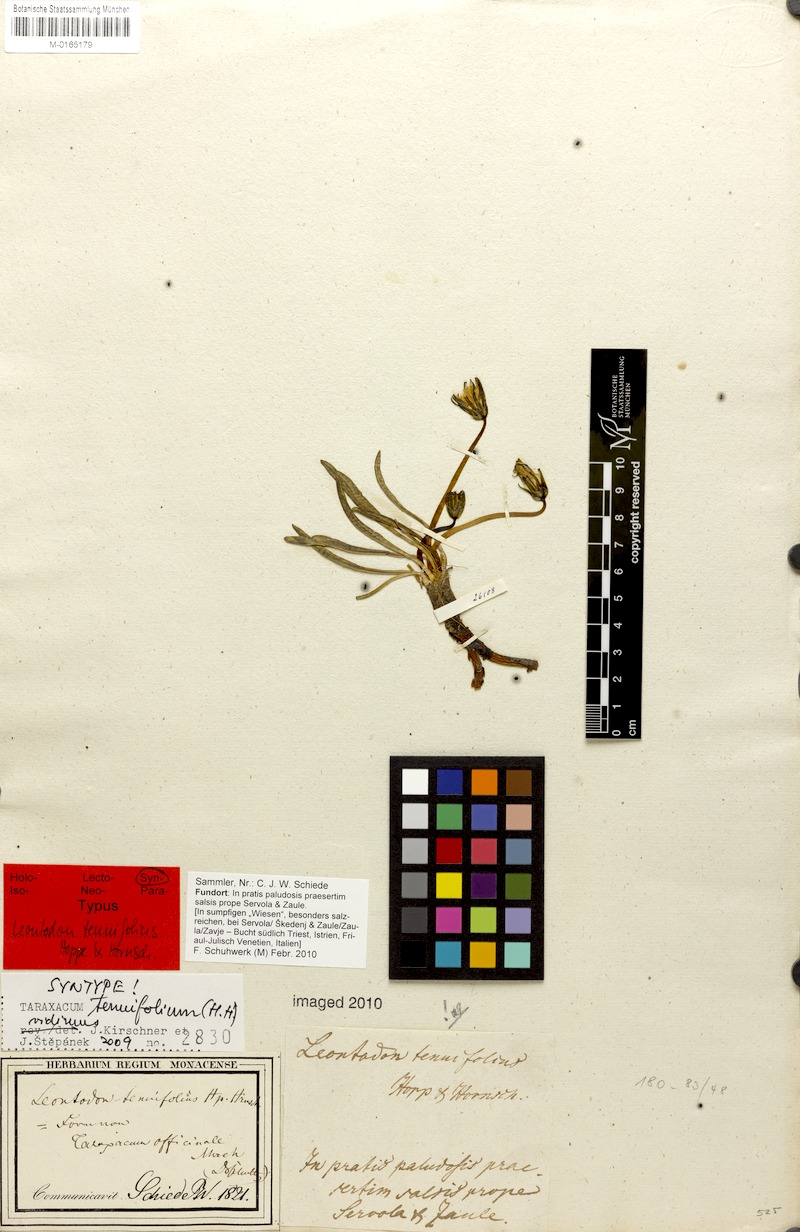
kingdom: Plantae
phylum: Tracheophyta
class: Magnoliopsida
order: Asterales
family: Asteraceae
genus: Taraxacum
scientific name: Taraxacum tenuifolium
